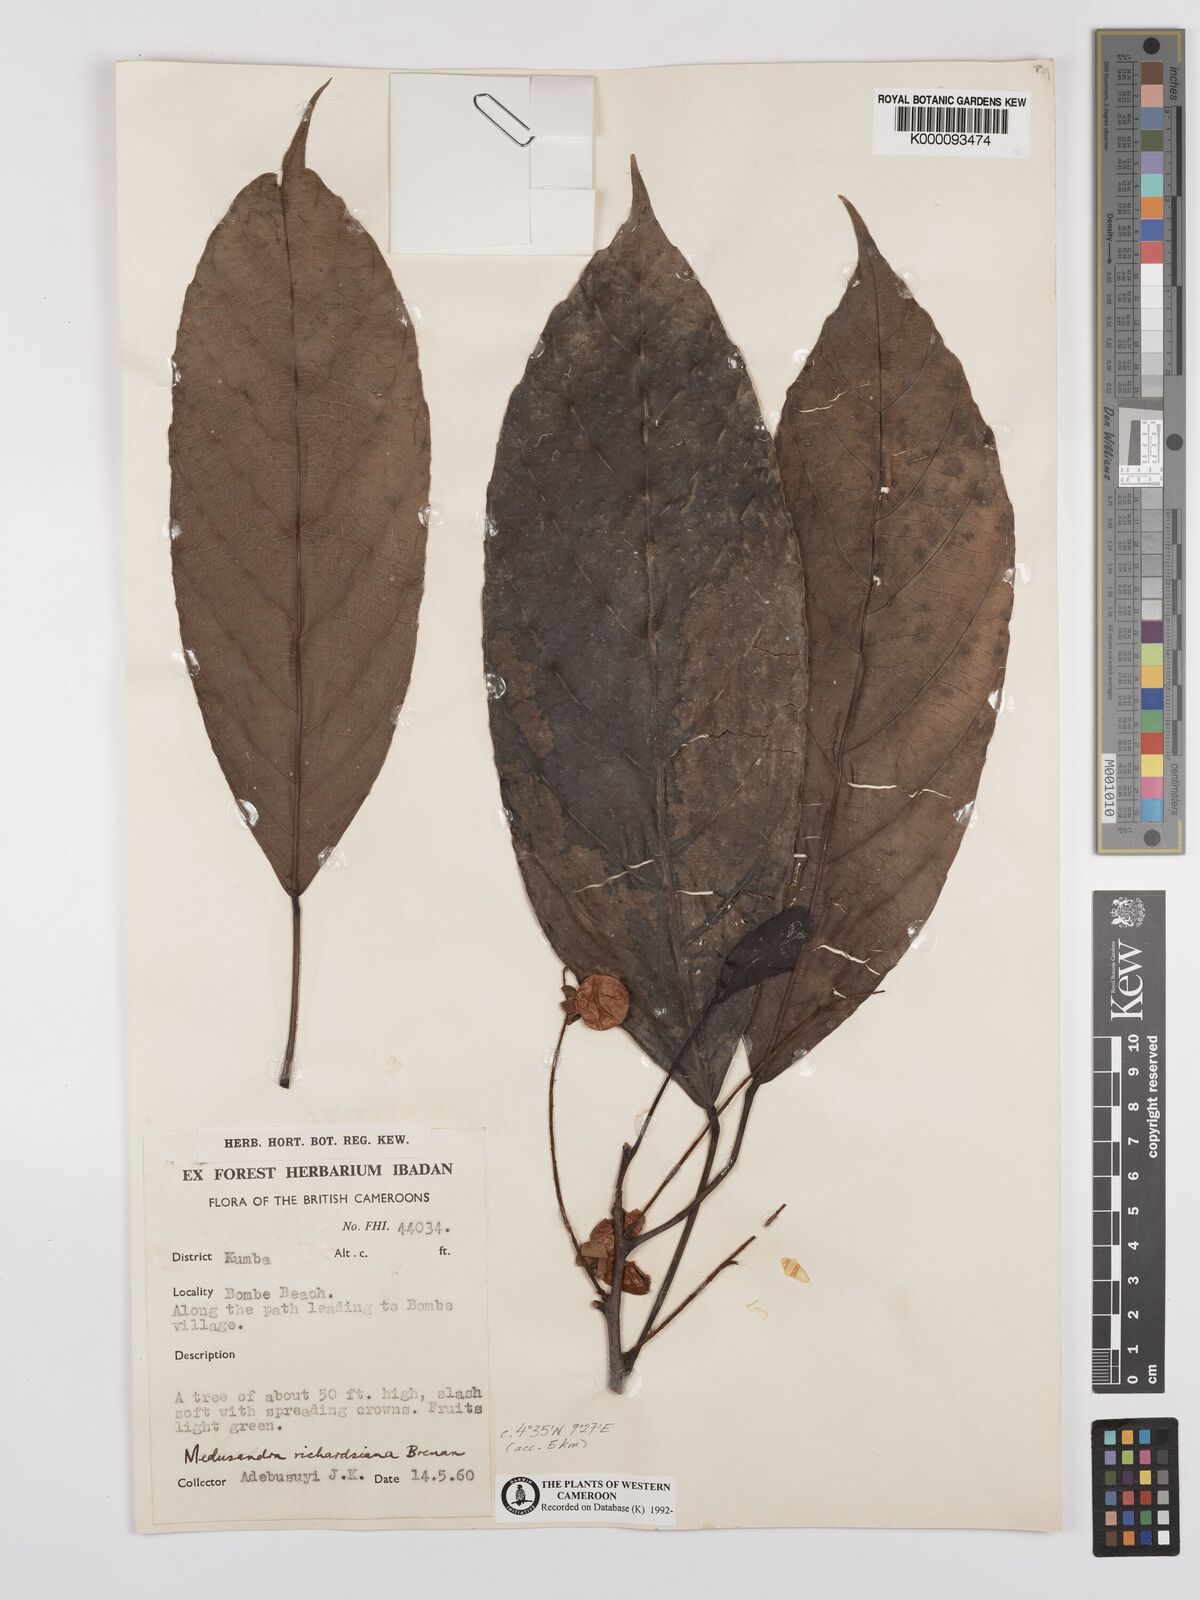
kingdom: Plantae
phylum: Tracheophyta
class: Magnoliopsida
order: Saxifragales
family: Peridiscaceae
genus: Medusandra
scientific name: Medusandra richardsiana
